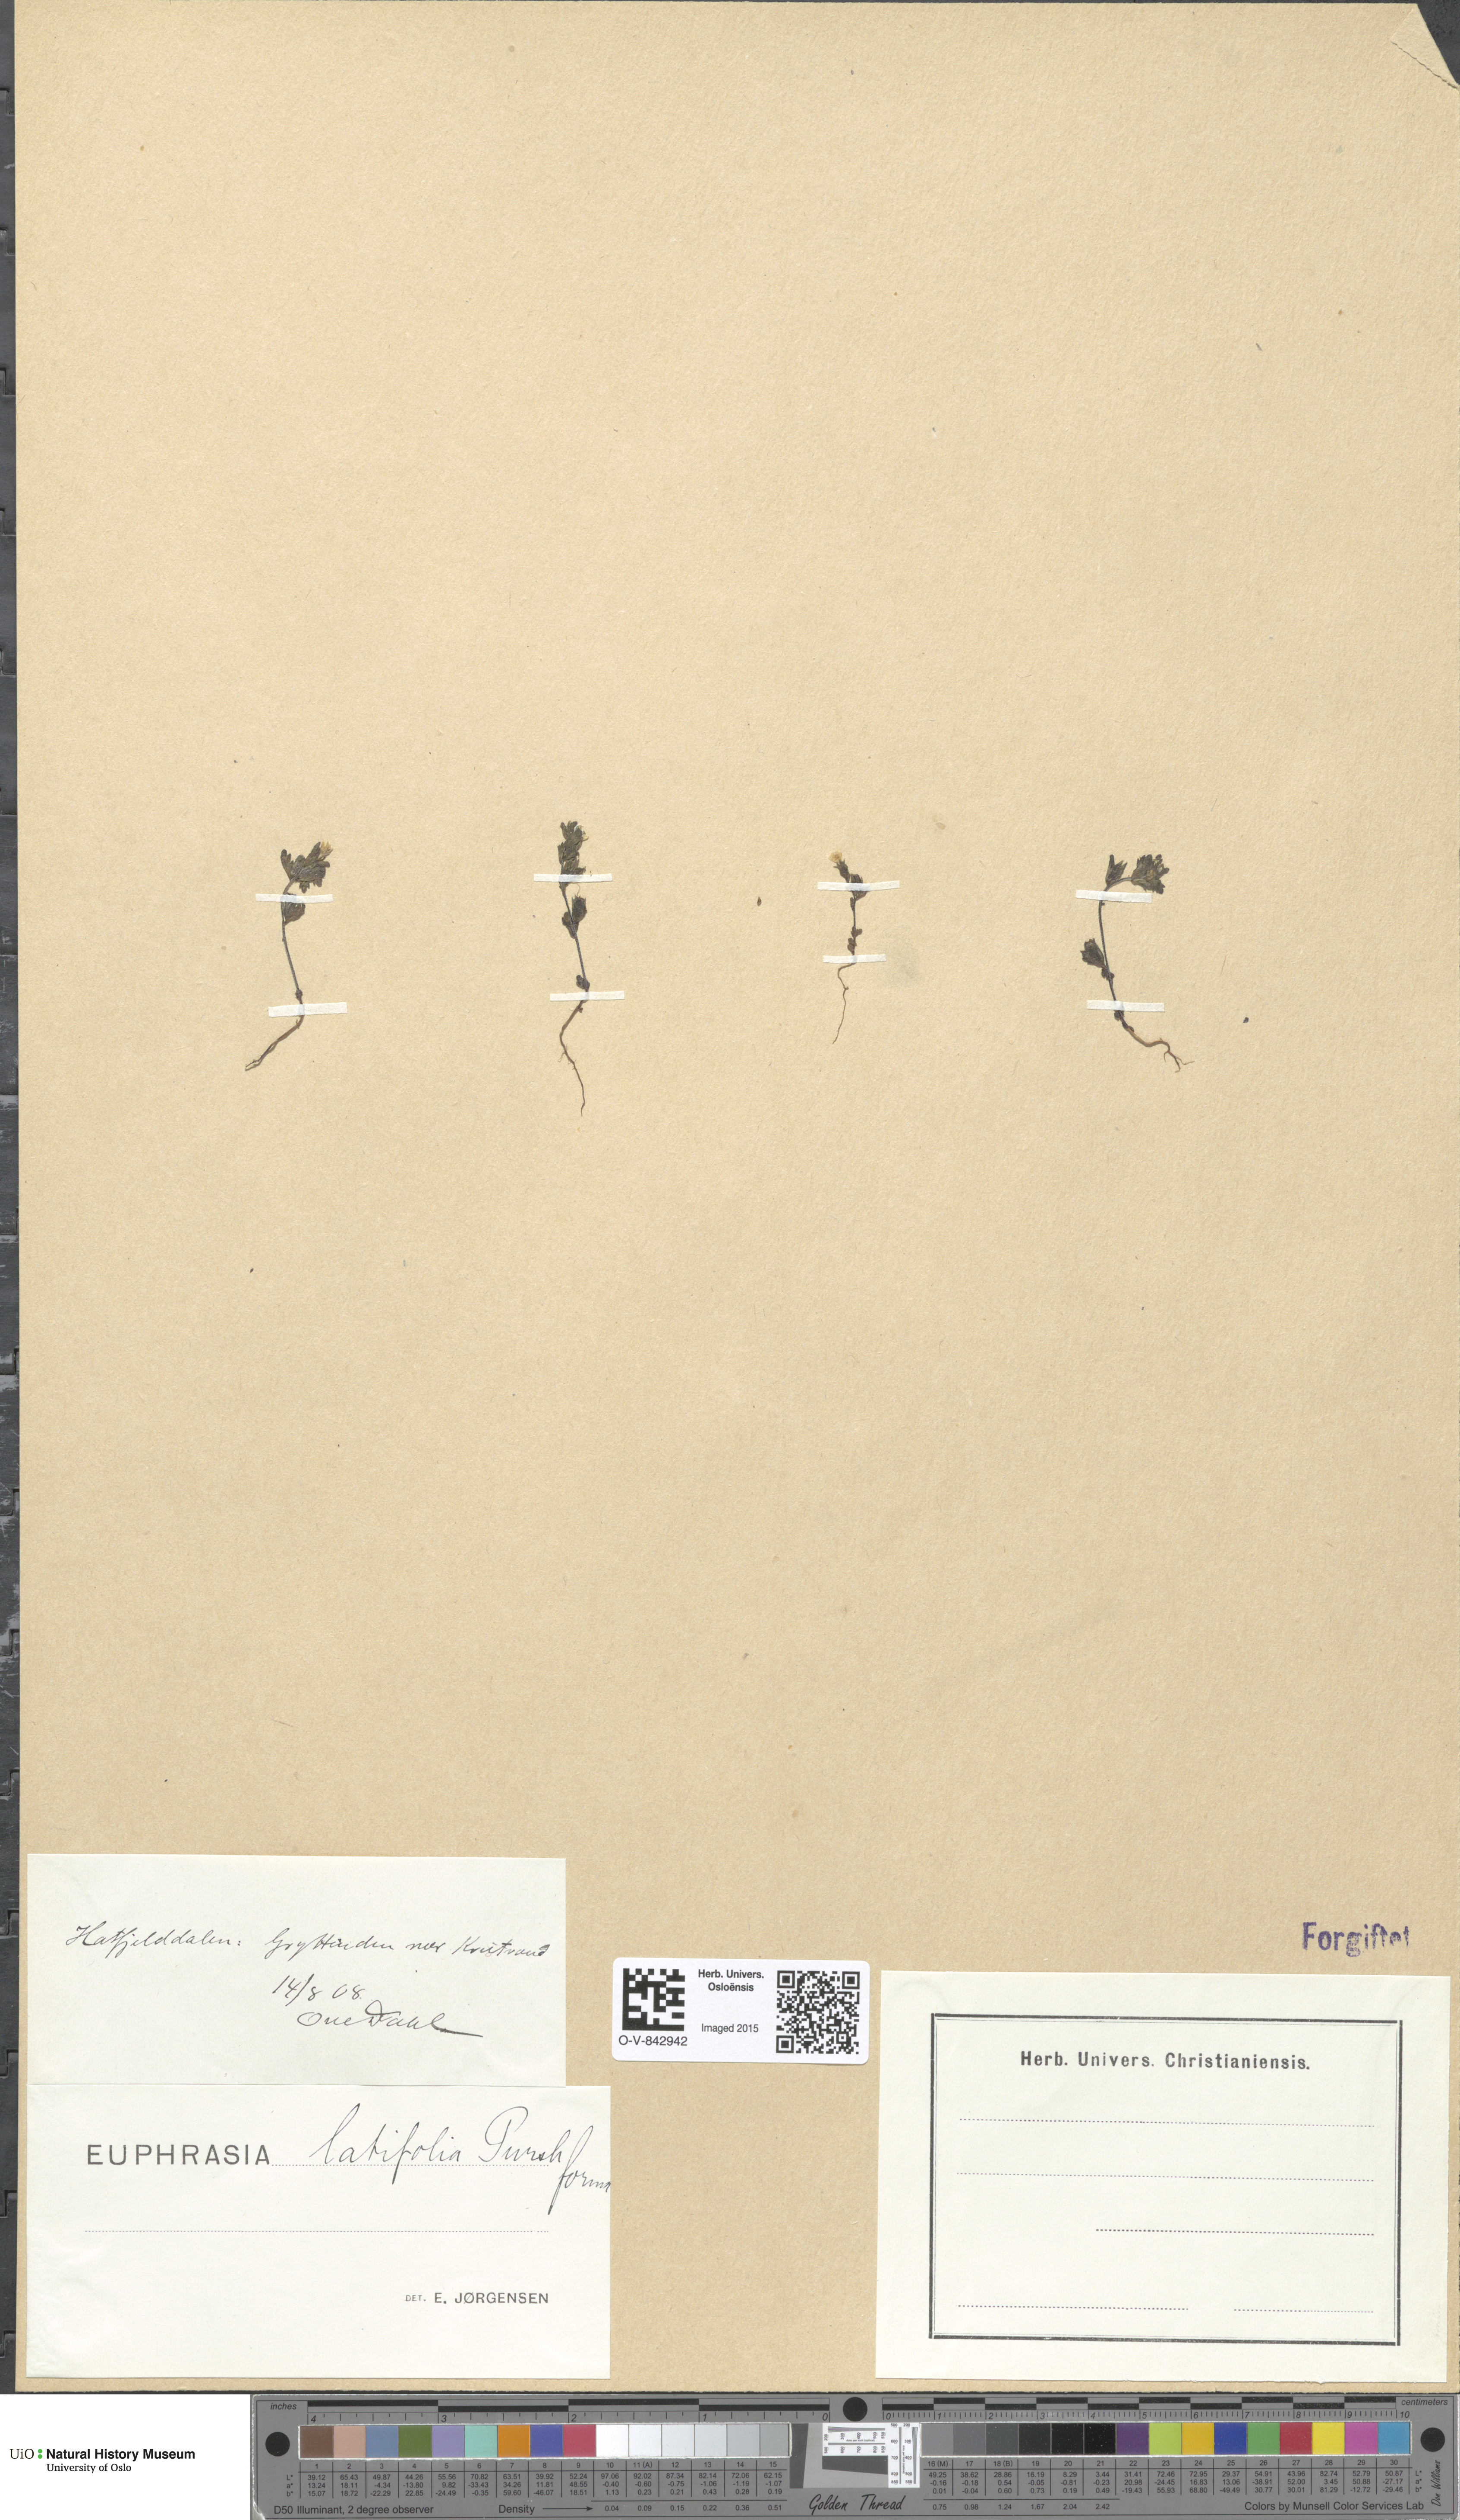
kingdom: Plantae
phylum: Tracheophyta
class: Magnoliopsida
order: Lamiales
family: Orobanchaceae
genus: Euphrasia
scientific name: Euphrasia wettsteinii
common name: Wettstein's eyebright
